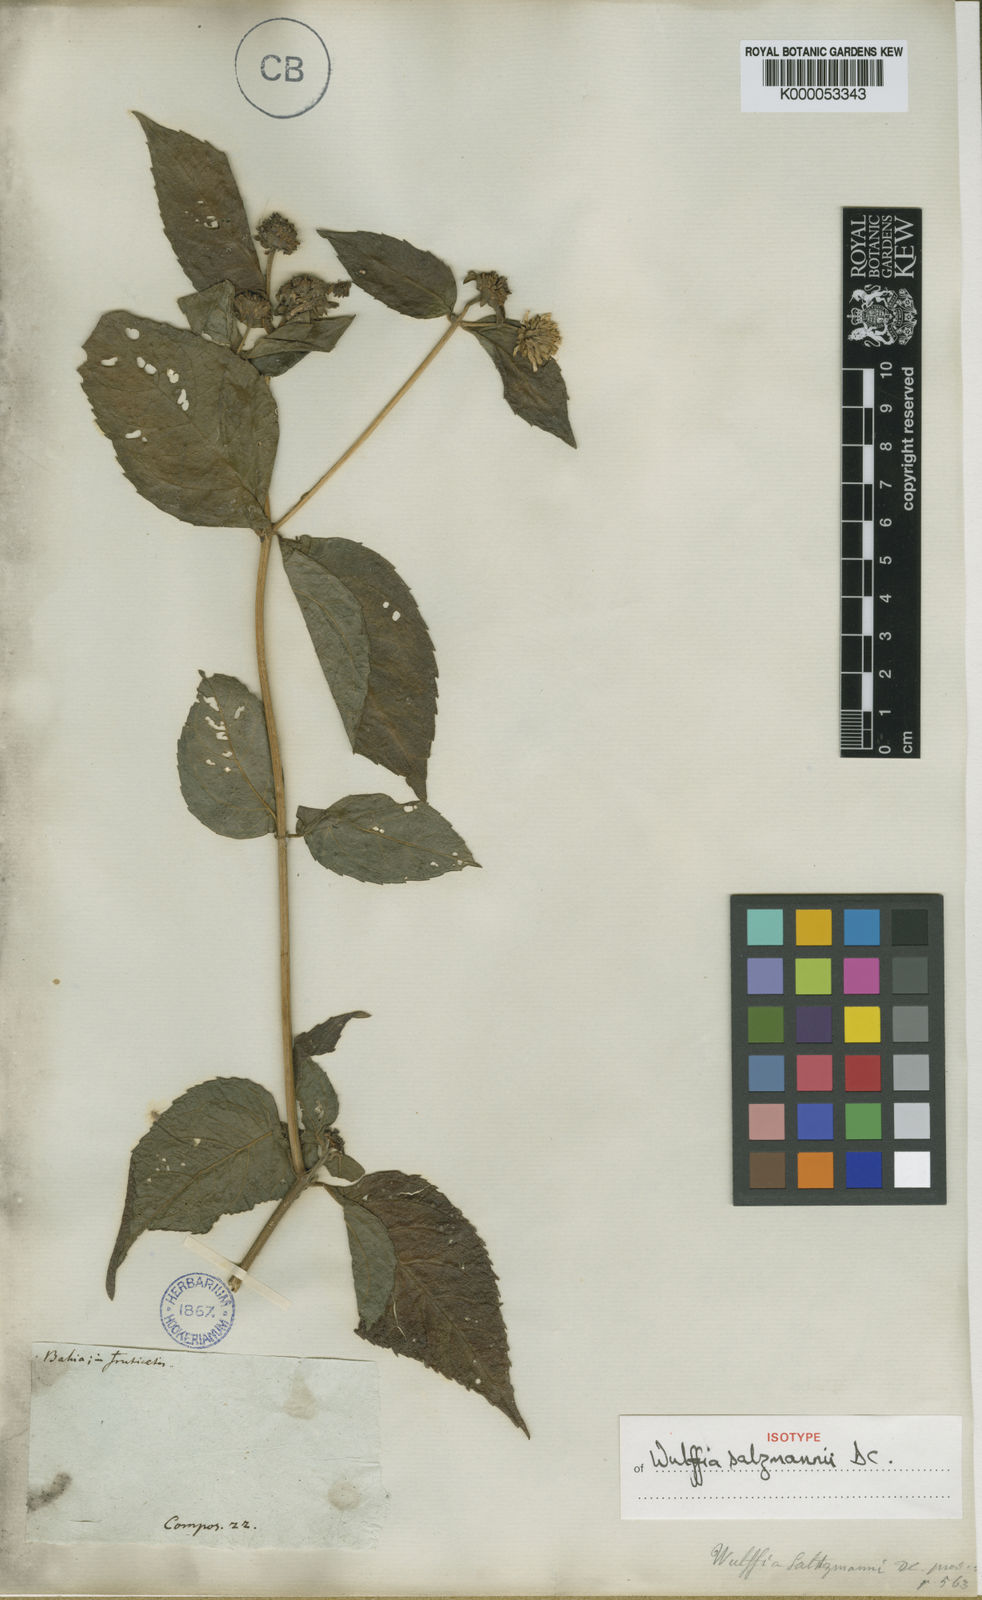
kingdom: Plantae
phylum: Tracheophyta
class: Magnoliopsida
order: Asterales
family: Asteraceae
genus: Tilesia
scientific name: Tilesia baccata
